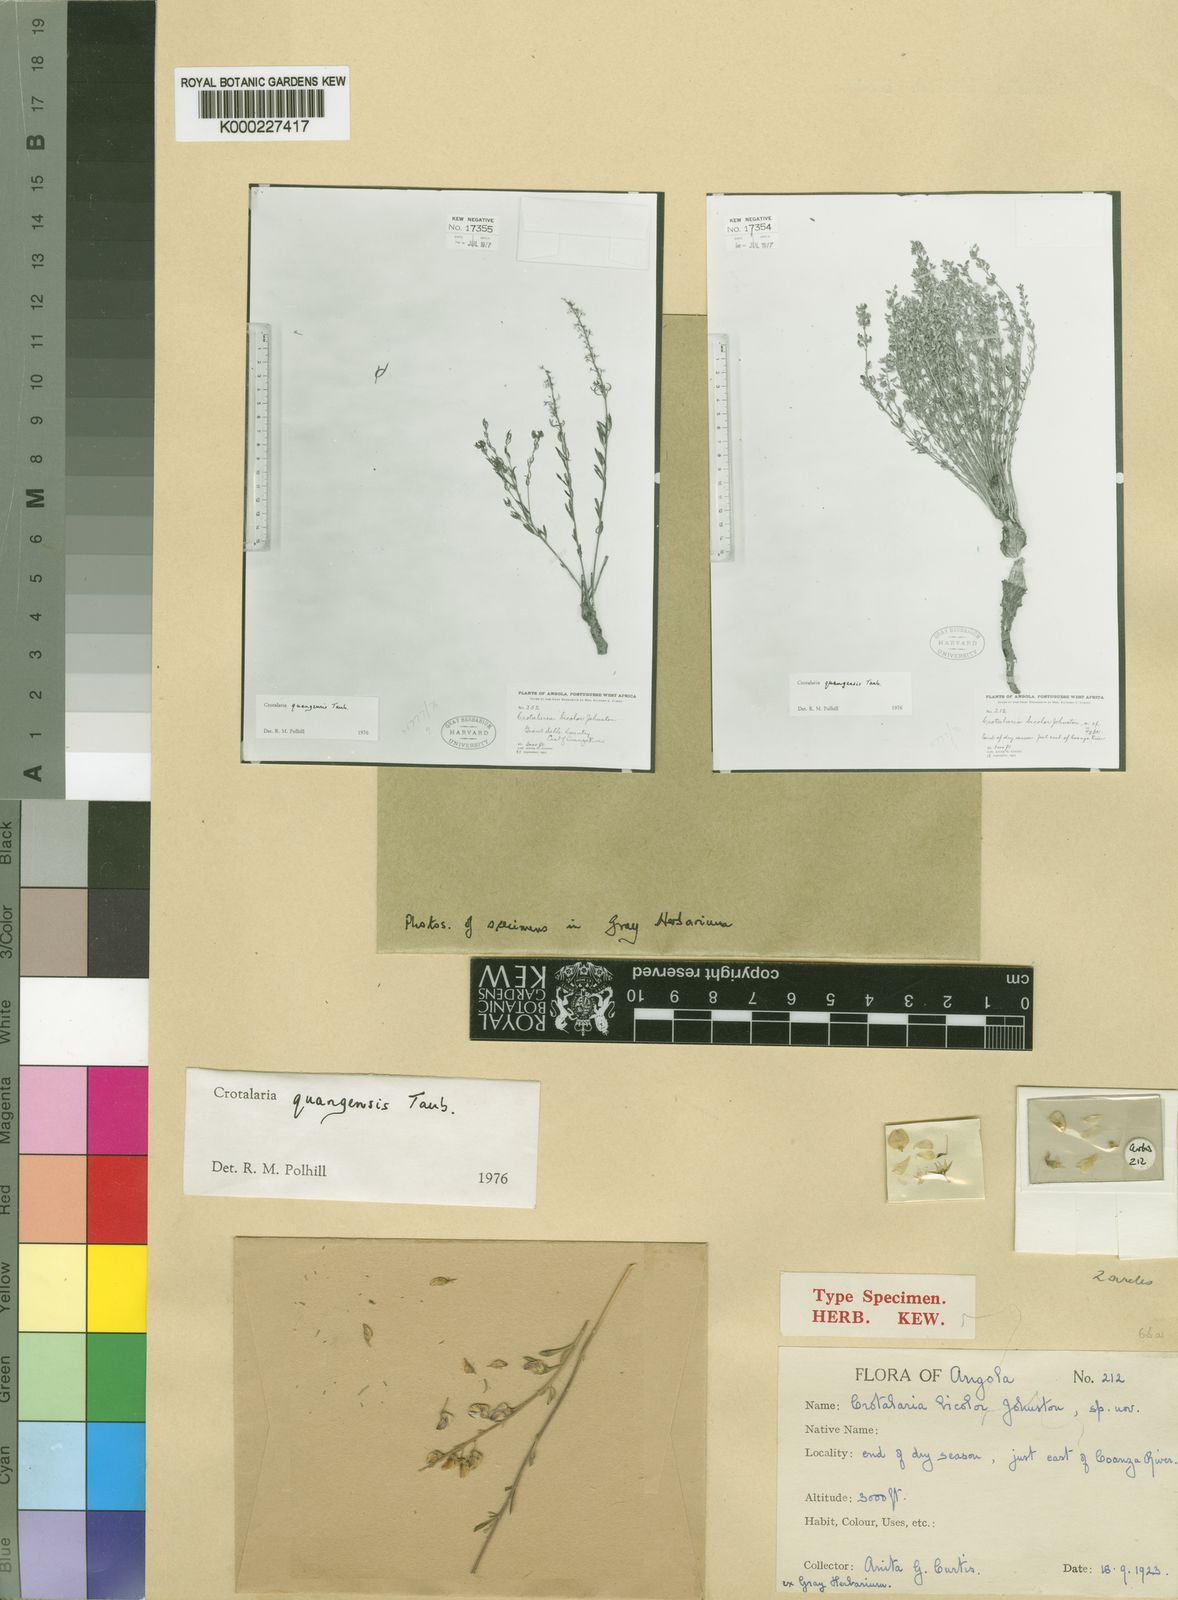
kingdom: Plantae
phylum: Tracheophyta
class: Magnoliopsida
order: Fabales
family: Fabaceae
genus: Crotalaria
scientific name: Crotalaria quangensis
